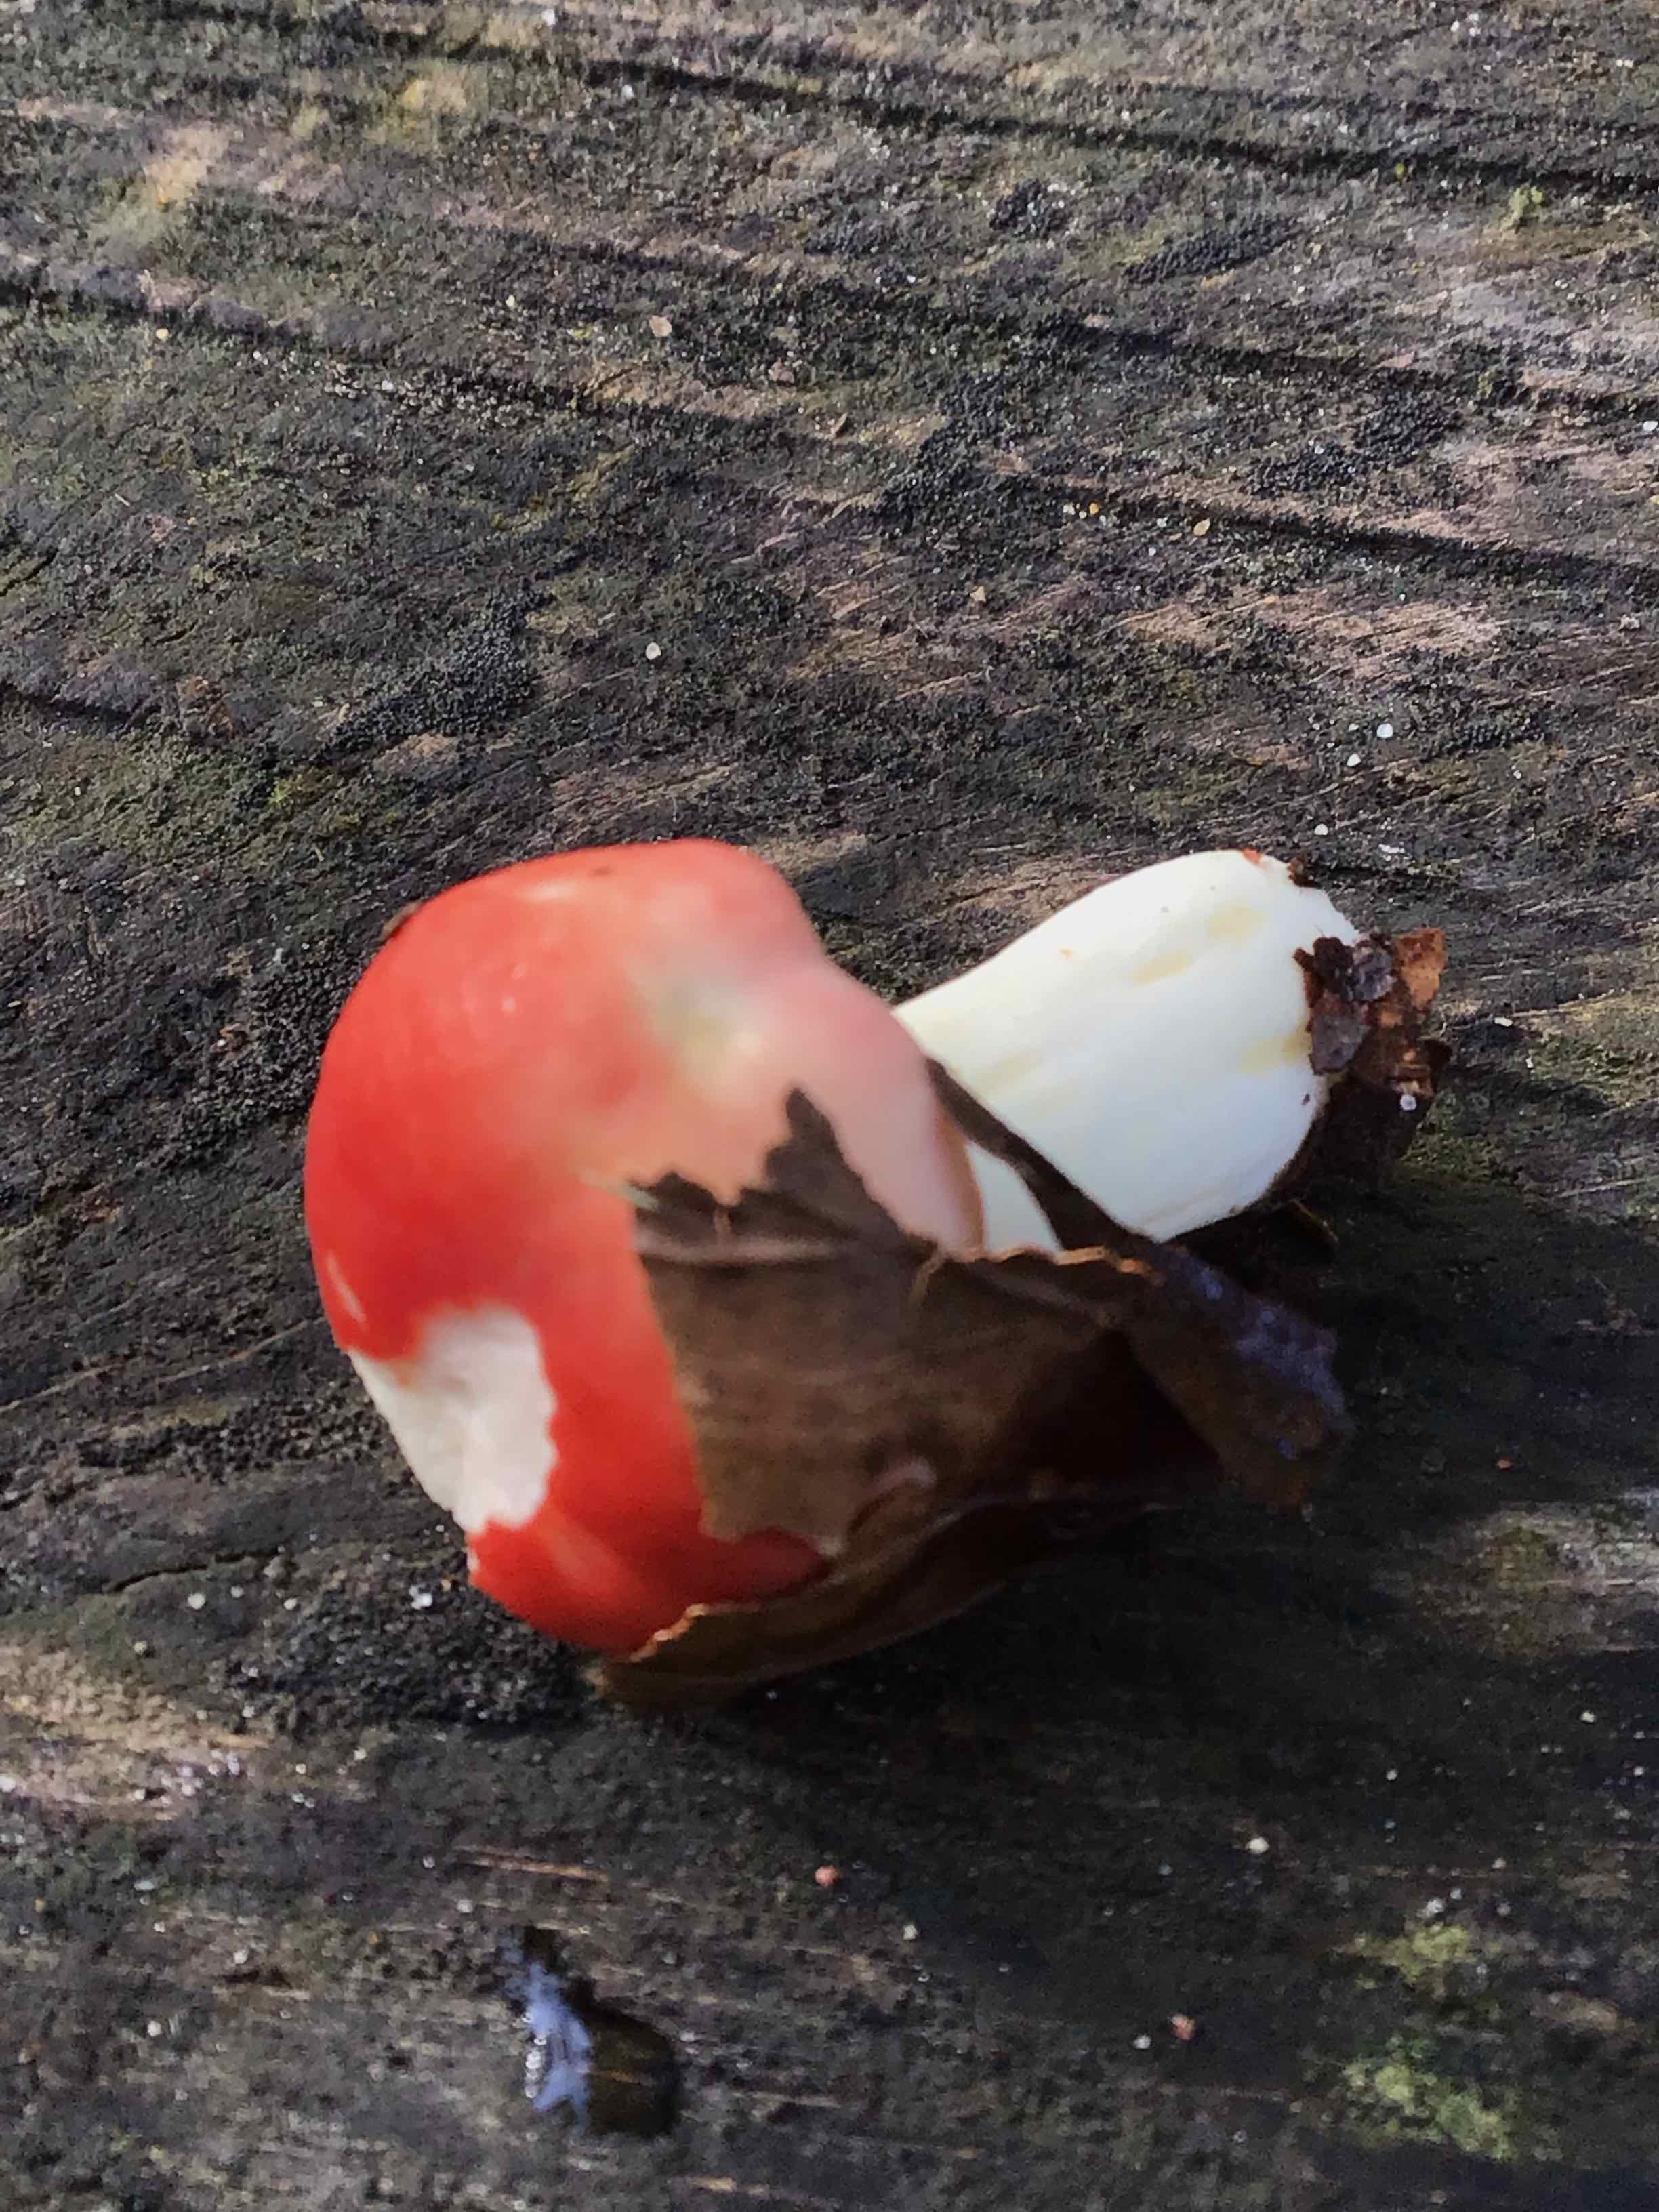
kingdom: Fungi
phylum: Basidiomycota
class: Agaricomycetes
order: Russulales
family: Russulaceae
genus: Russula
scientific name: Russula
